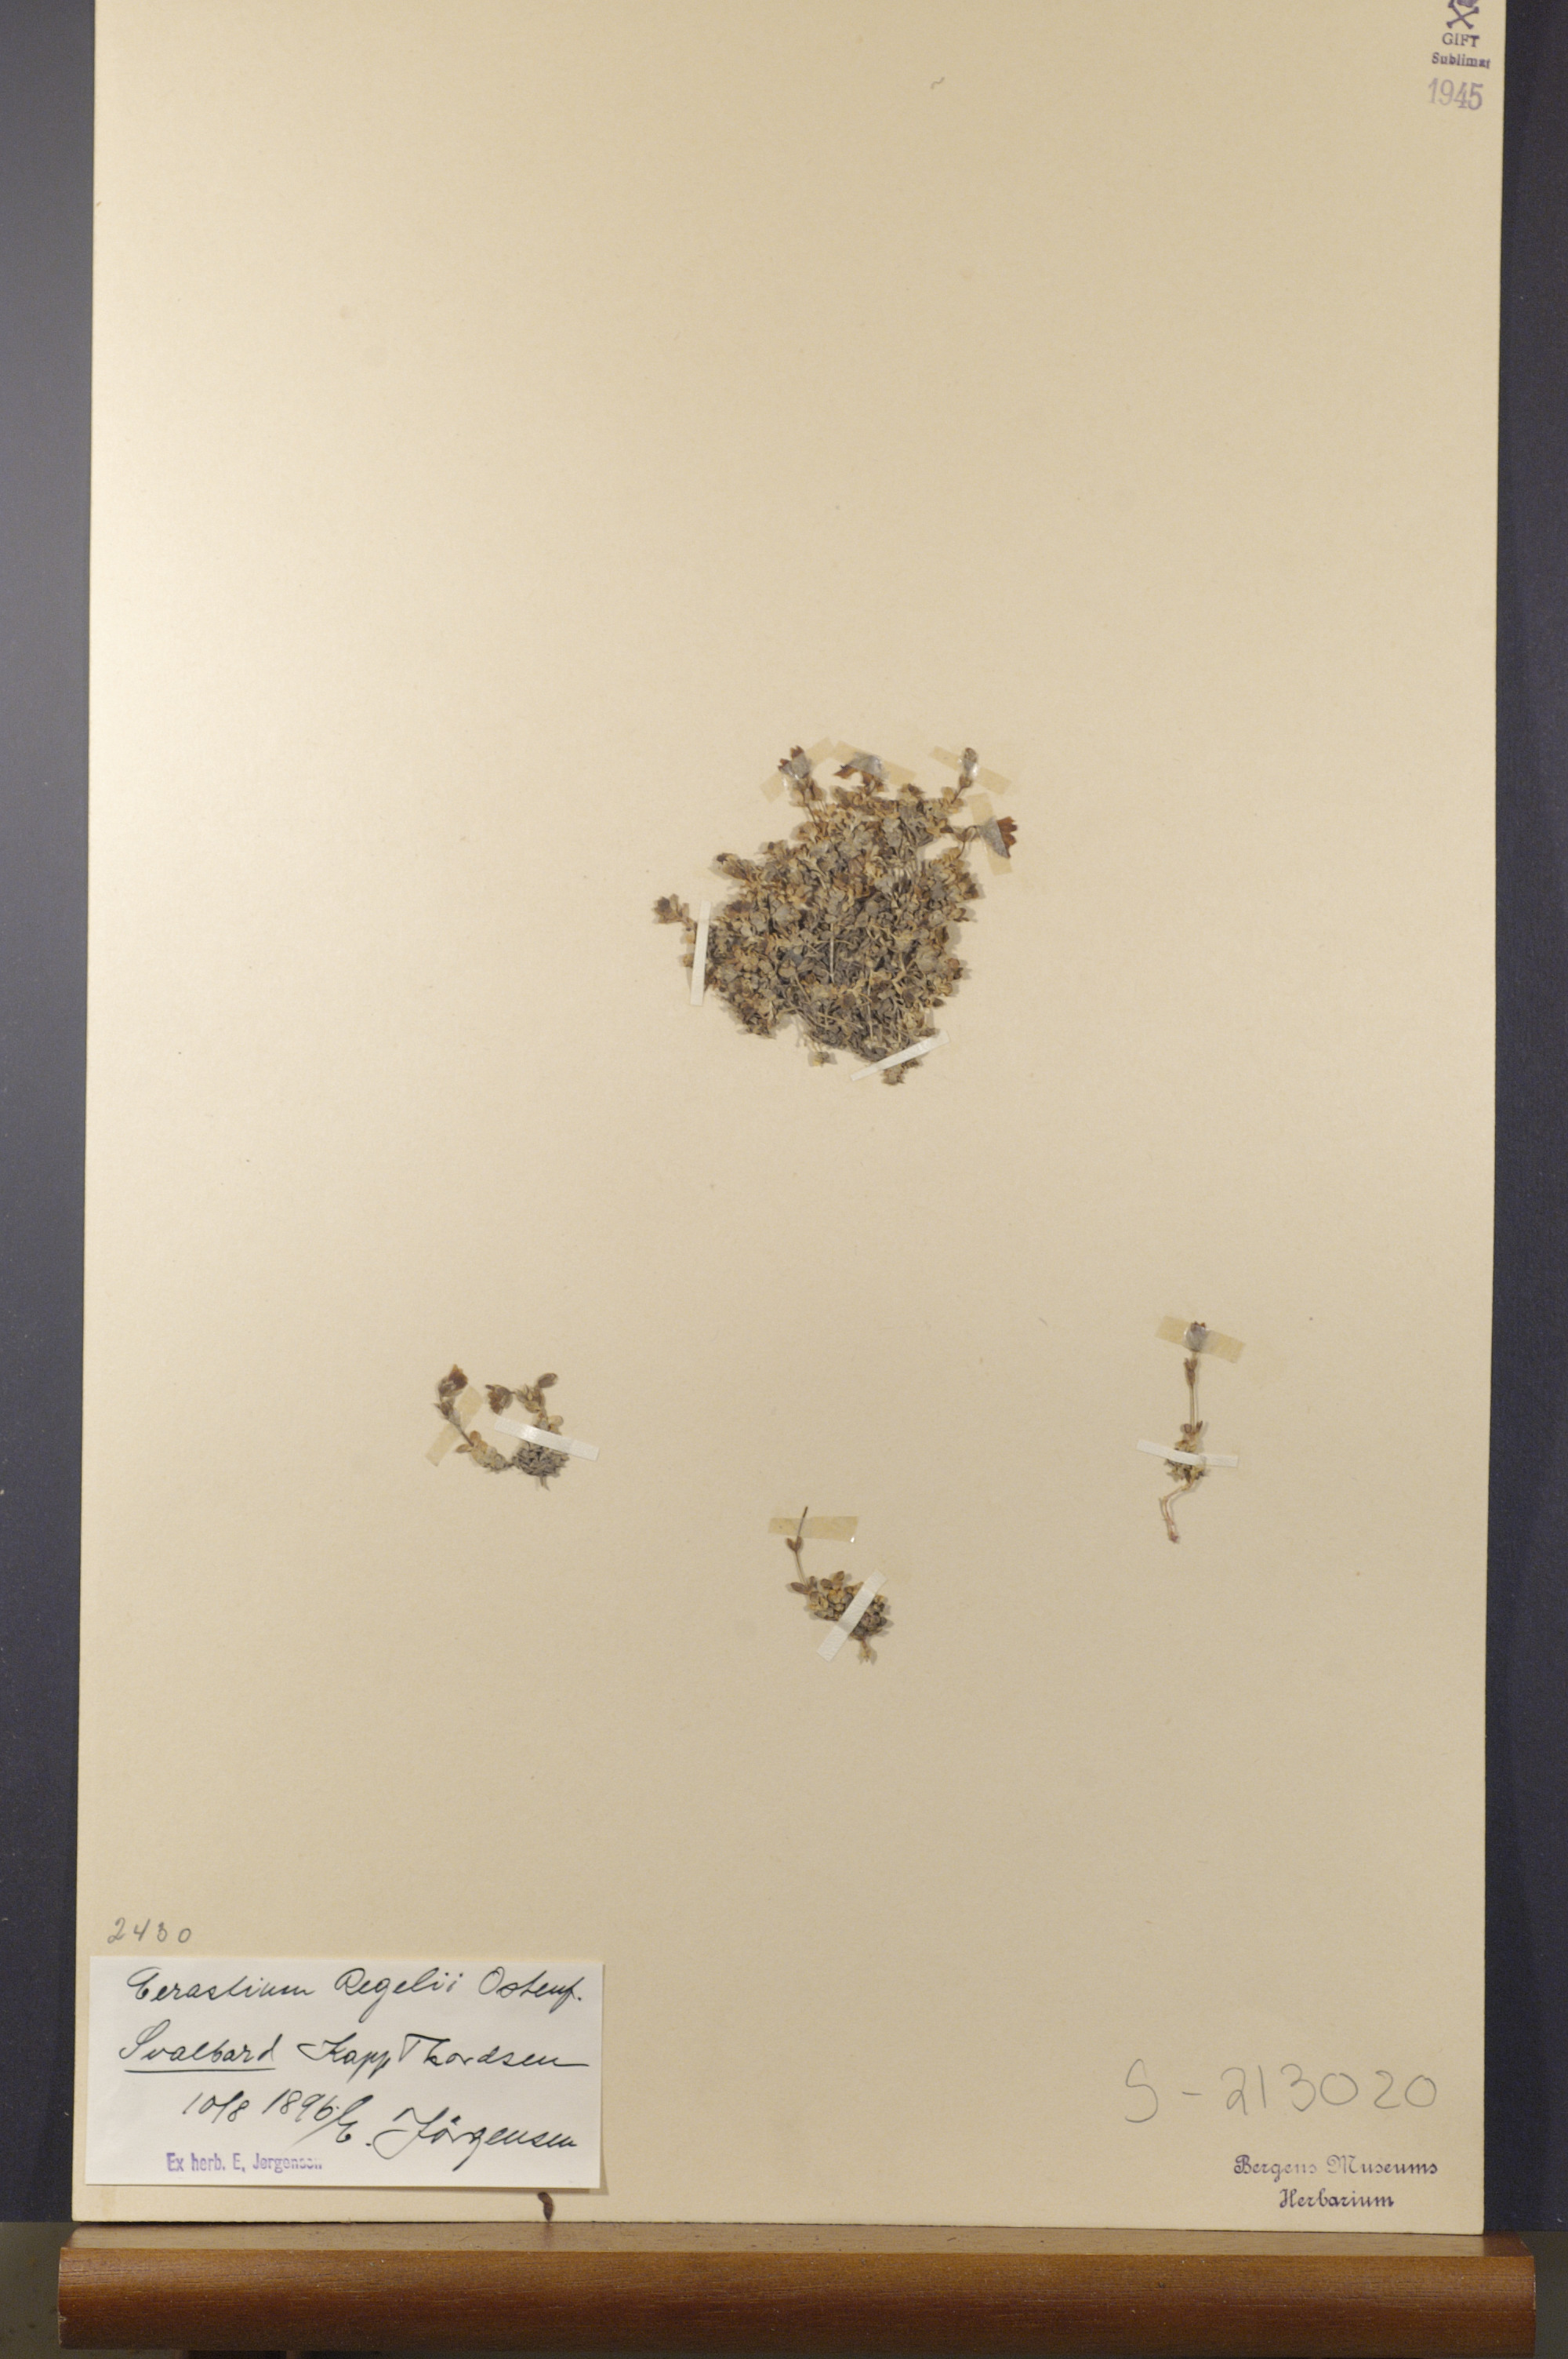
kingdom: Plantae
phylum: Tracheophyta
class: Magnoliopsida
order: Caryophyllales
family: Caryophyllaceae
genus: Cerastium
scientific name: Cerastium regelii
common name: Regel's chickweed
